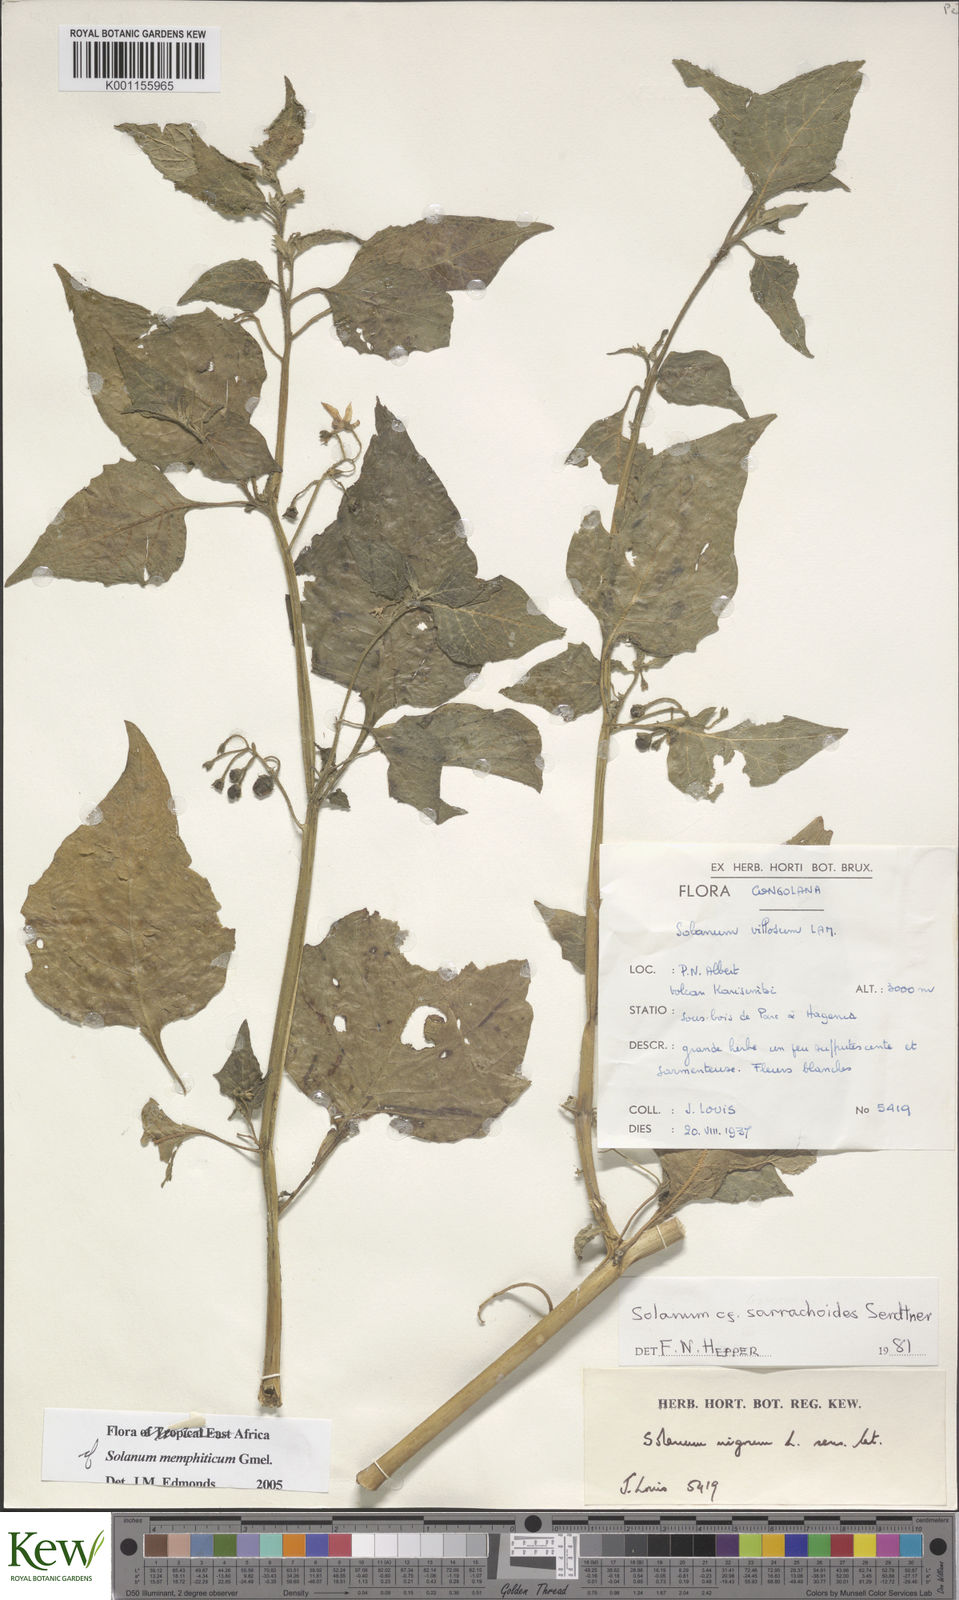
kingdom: Plantae
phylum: Tracheophyta
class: Magnoliopsida
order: Solanales
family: Solanaceae
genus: Solanum
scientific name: Solanum tarderemotum
